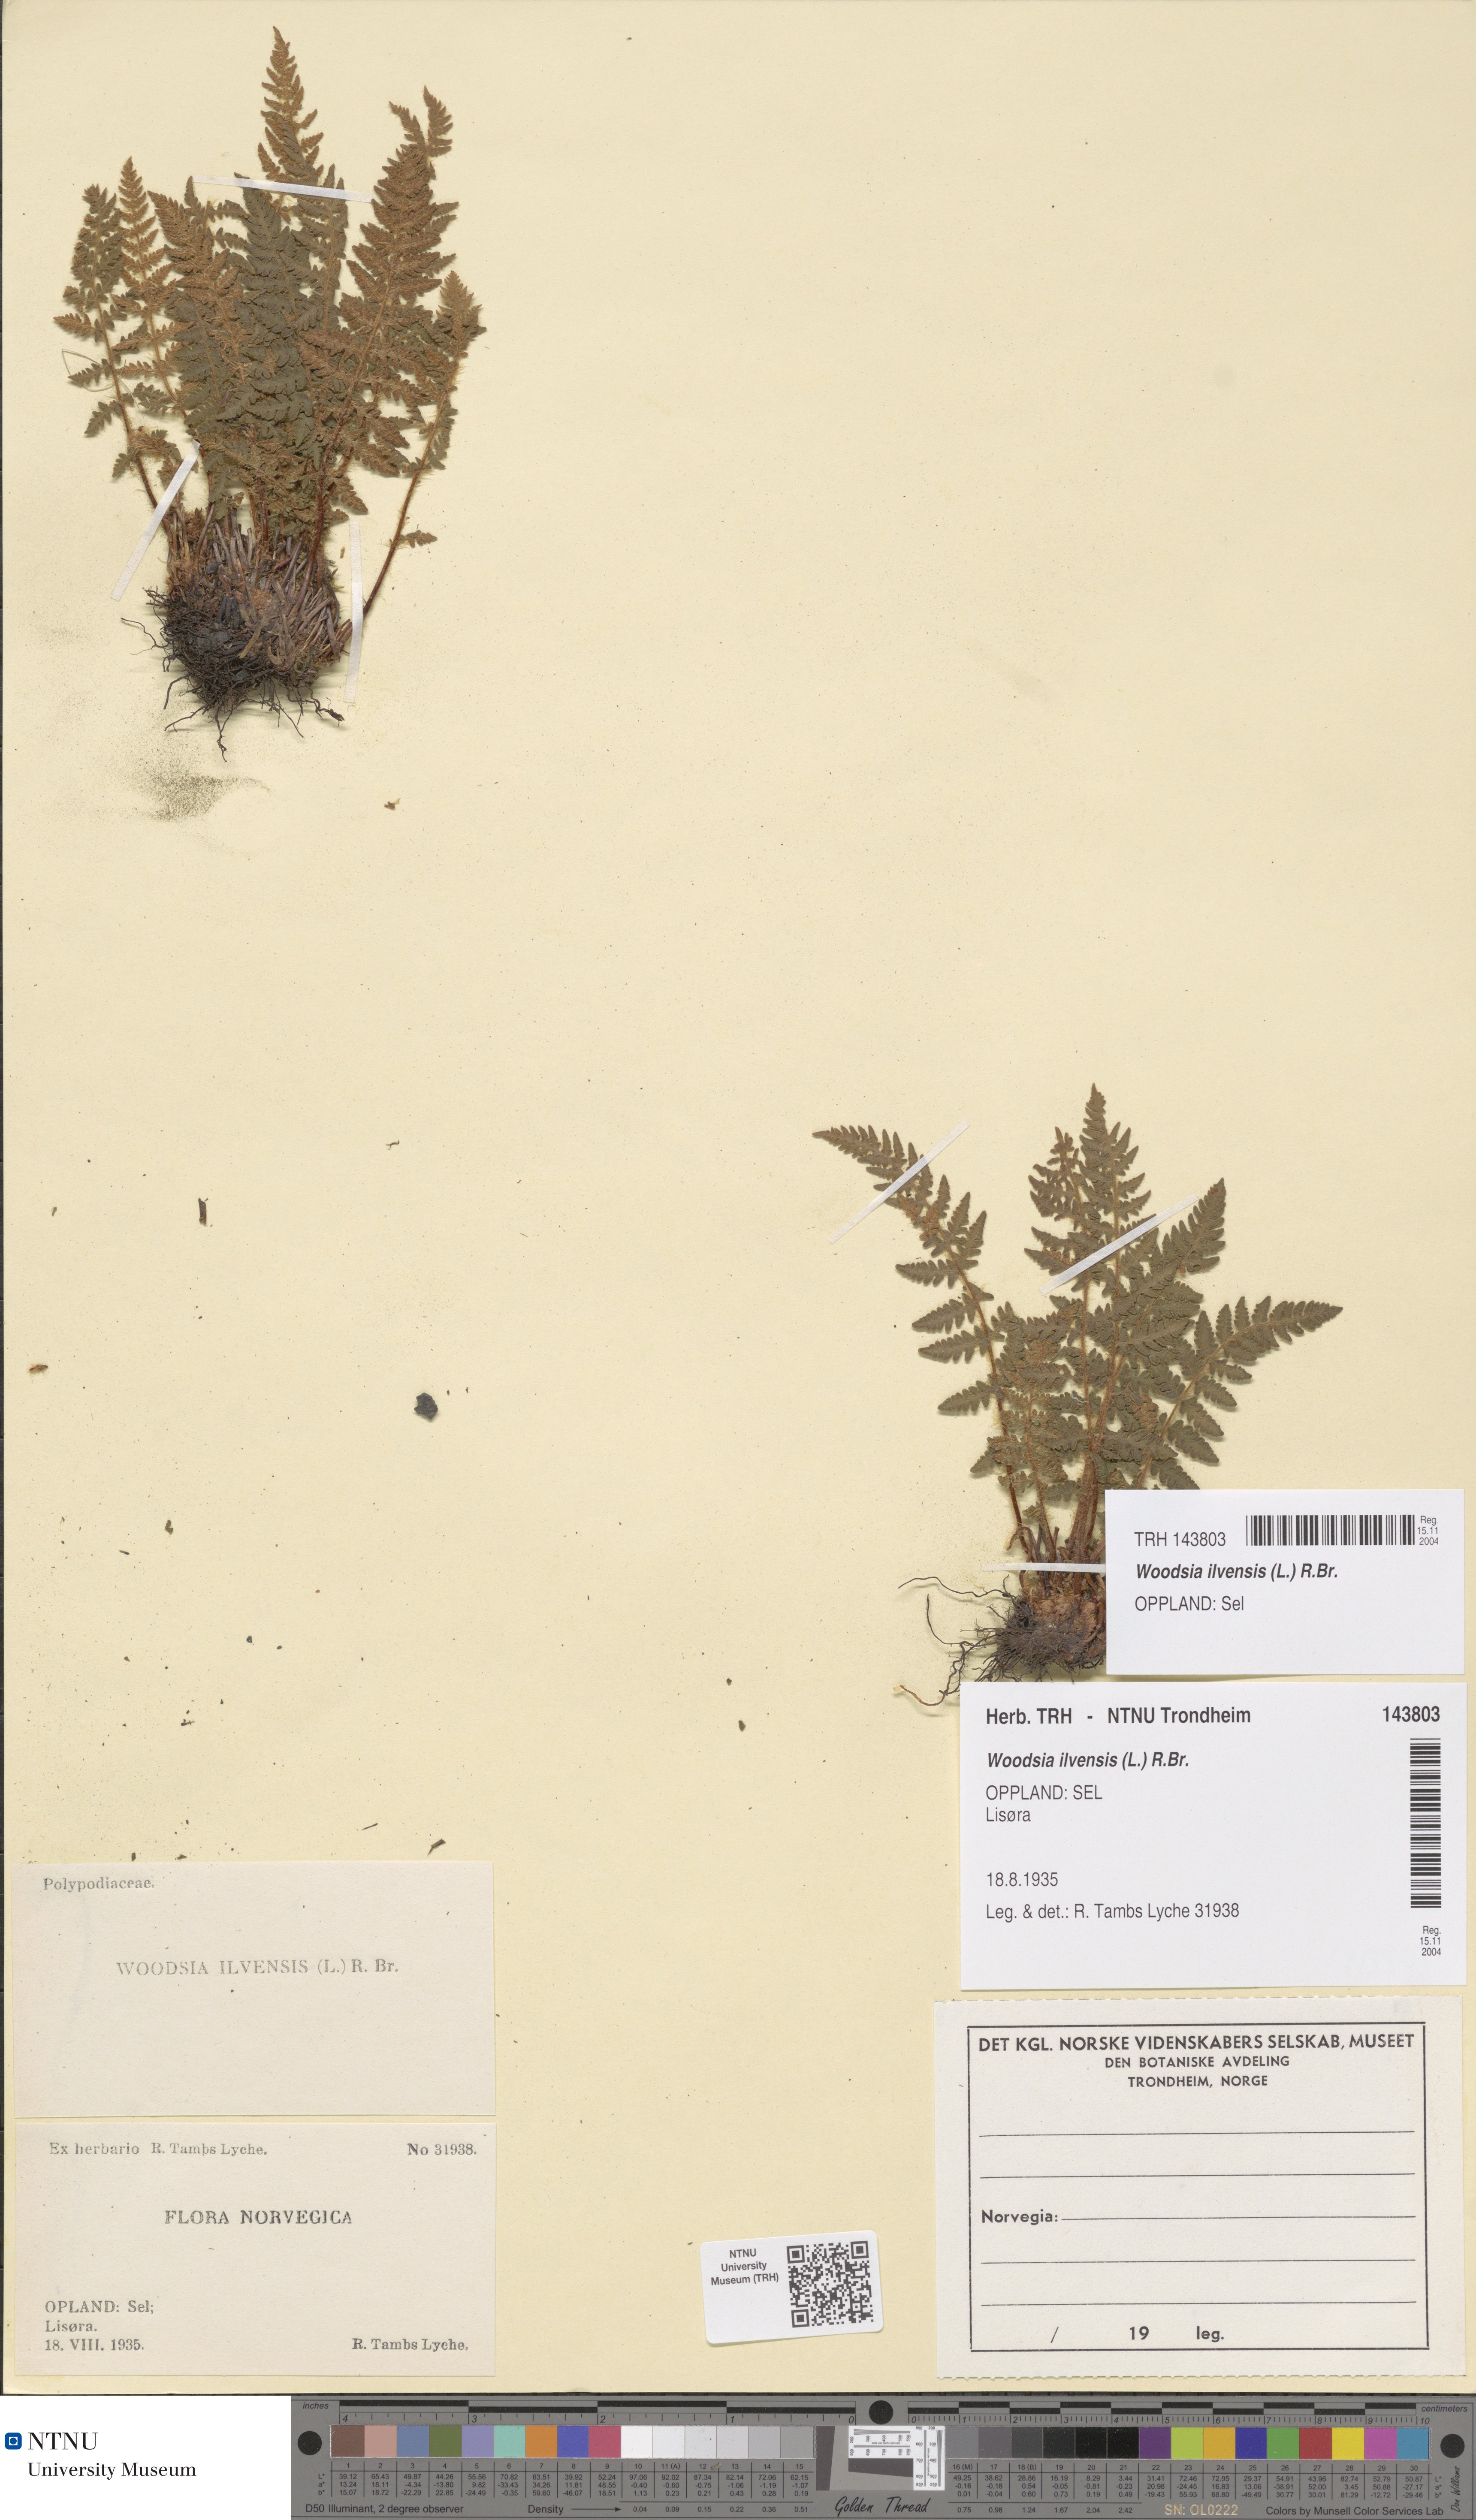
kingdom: Plantae
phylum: Tracheophyta
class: Polypodiopsida
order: Polypodiales
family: Woodsiaceae
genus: Woodsia
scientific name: Woodsia ilvensis
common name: Fragrant woodsia
